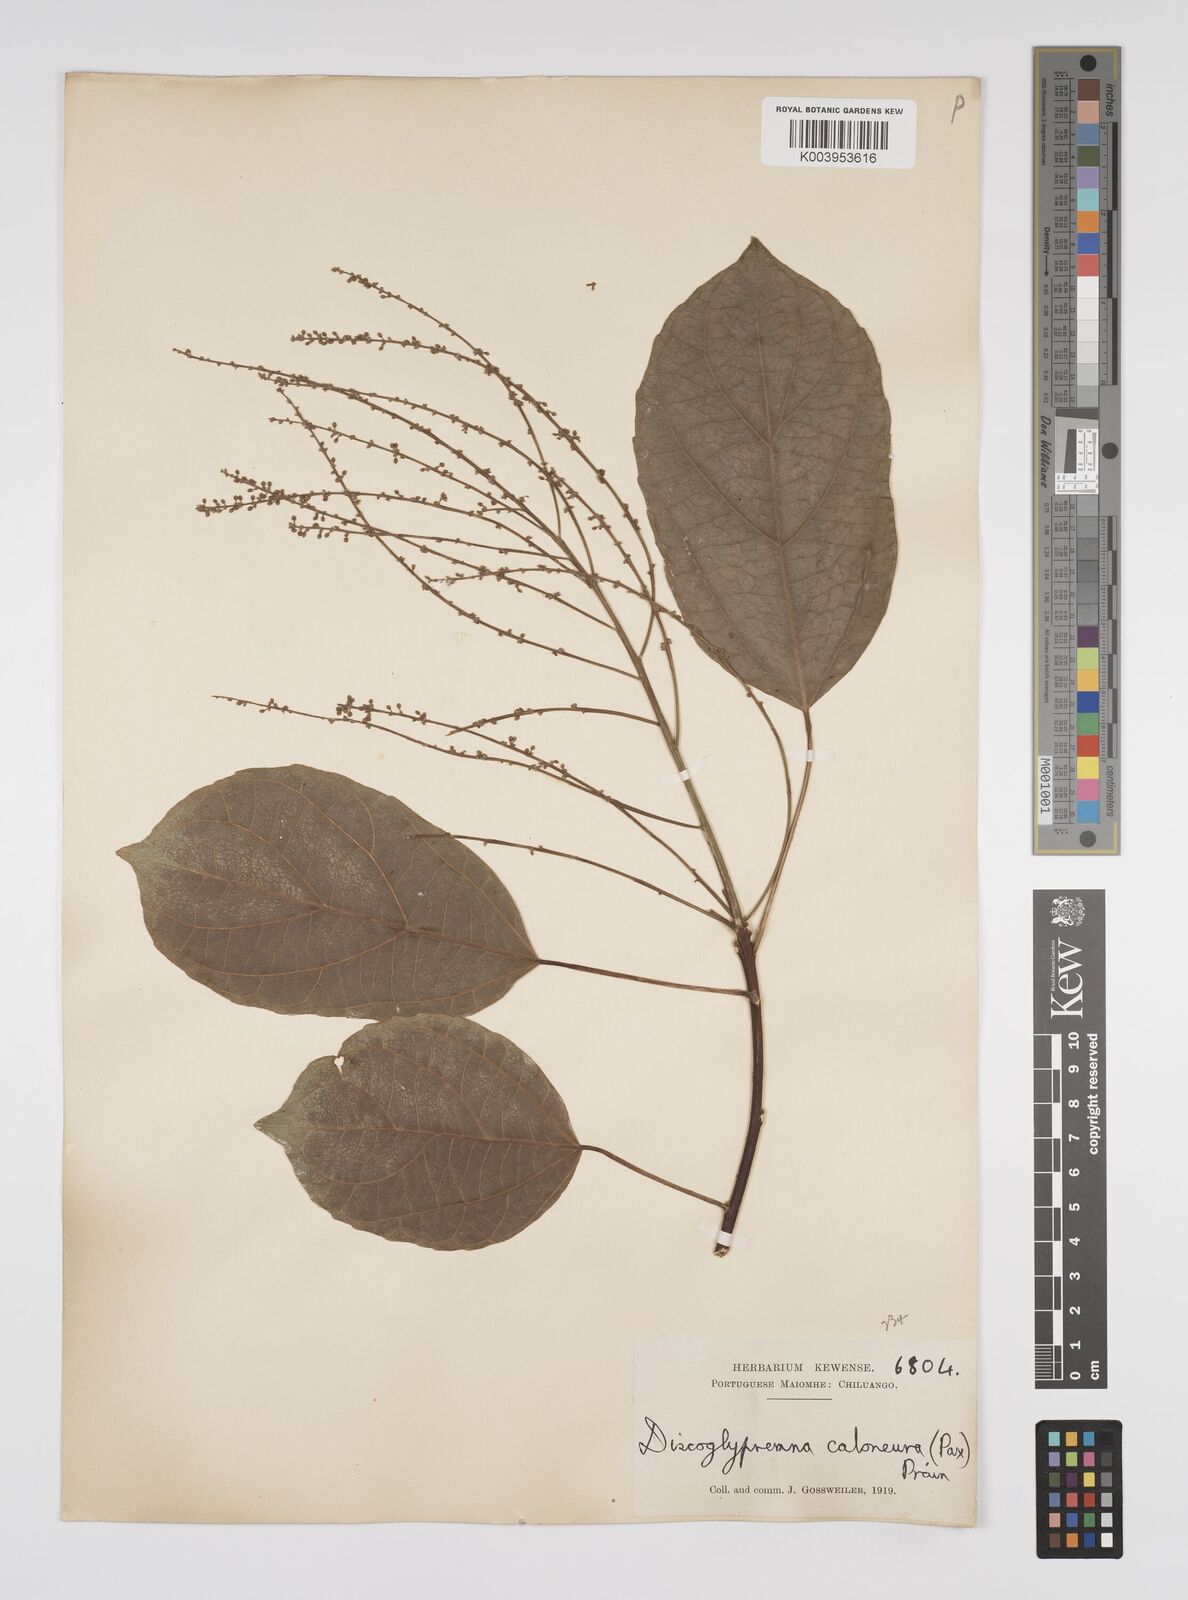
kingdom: Plantae
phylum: Tracheophyta
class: Magnoliopsida
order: Malpighiales
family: Euphorbiaceae
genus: Discoglypremna
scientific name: Discoglypremna caloneura
